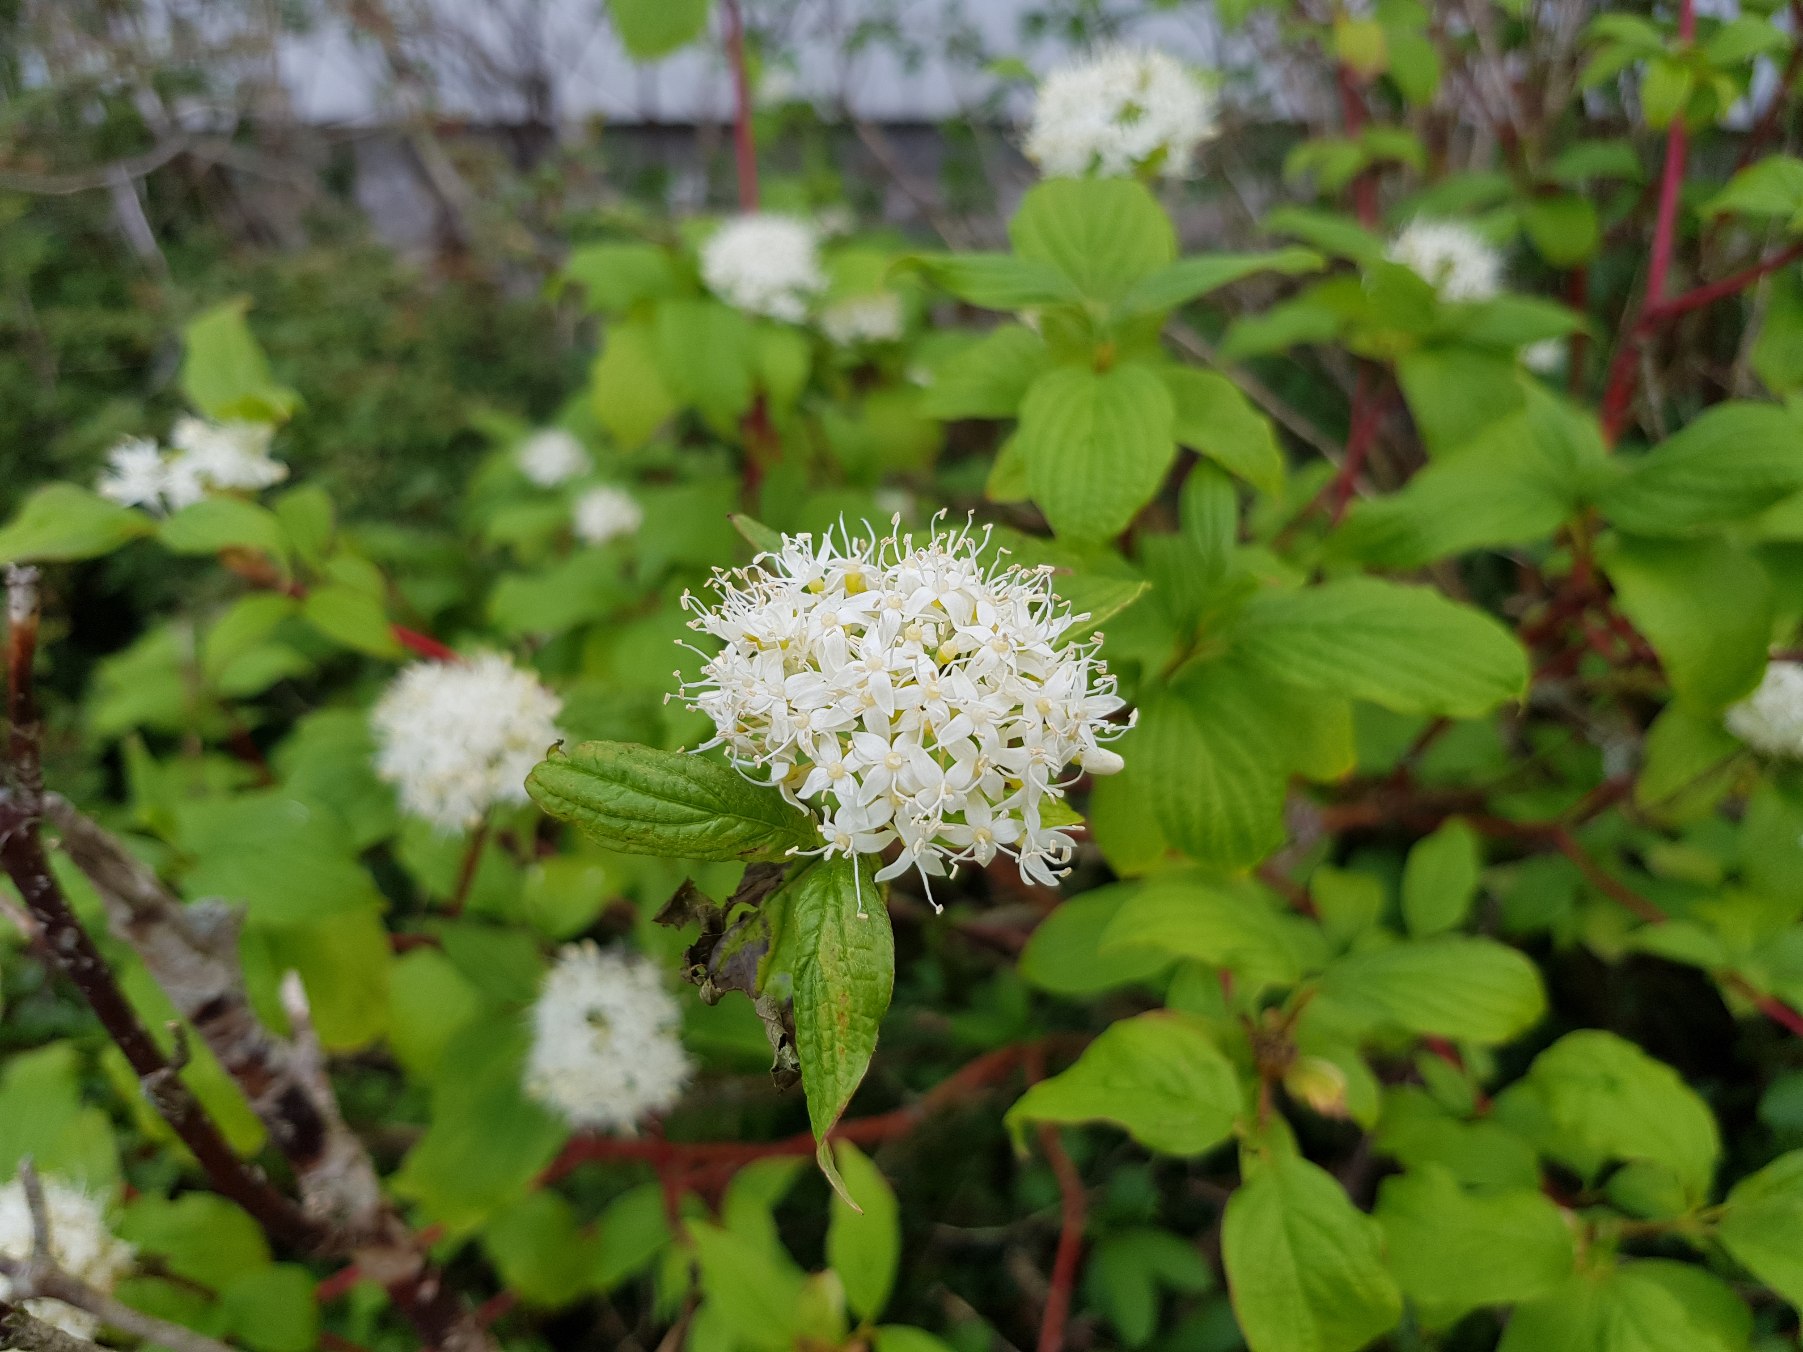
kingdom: Plantae
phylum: Tracheophyta
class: Magnoliopsida
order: Cornales
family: Cornaceae
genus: Cornus
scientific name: Cornus sanguinea
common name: Rød kornel
